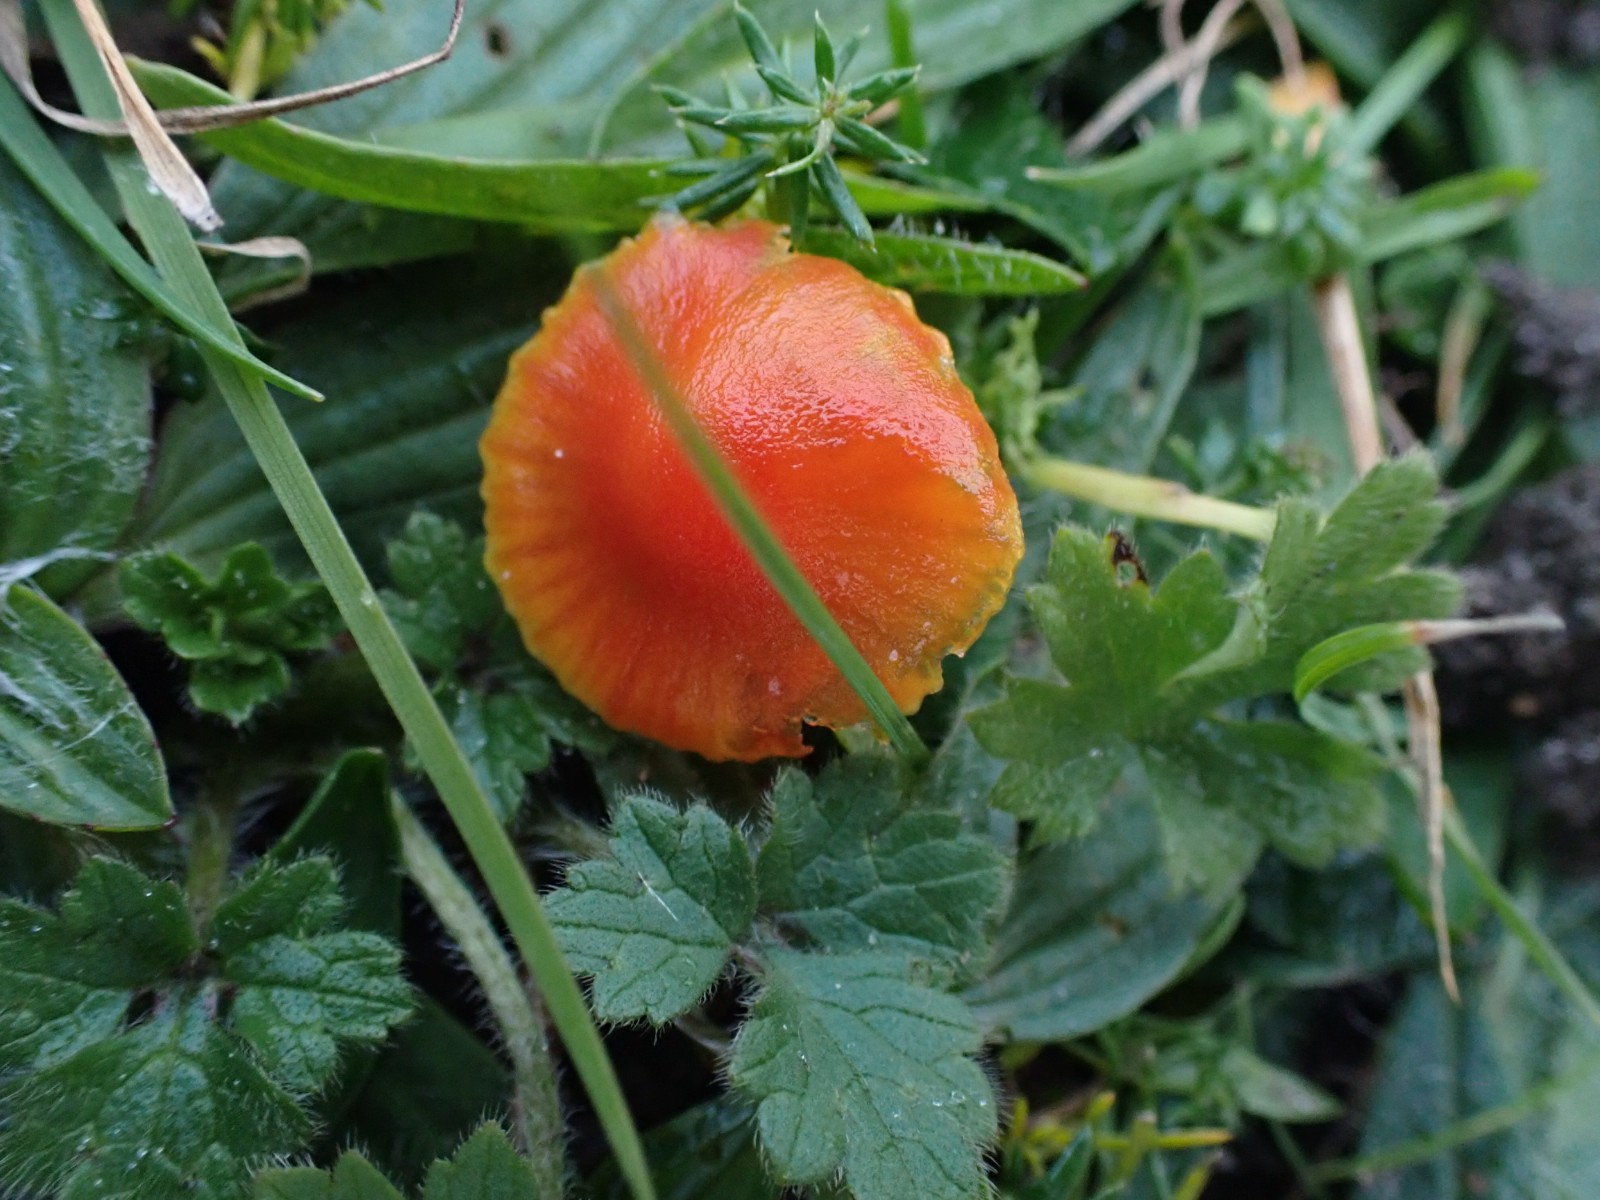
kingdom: Fungi
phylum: Basidiomycota
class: Agaricomycetes
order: Agaricales
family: Hygrophoraceae
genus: Hygrocybe
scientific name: Hygrocybe insipida
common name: liden vokshat
